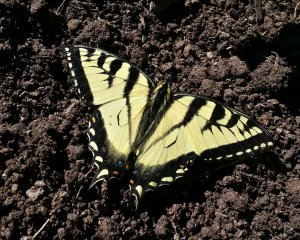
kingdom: Animalia
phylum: Arthropoda
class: Insecta
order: Lepidoptera
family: Papilionidae
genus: Pterourus
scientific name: Pterourus canadensis
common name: Canadian Tiger Swallowtail
